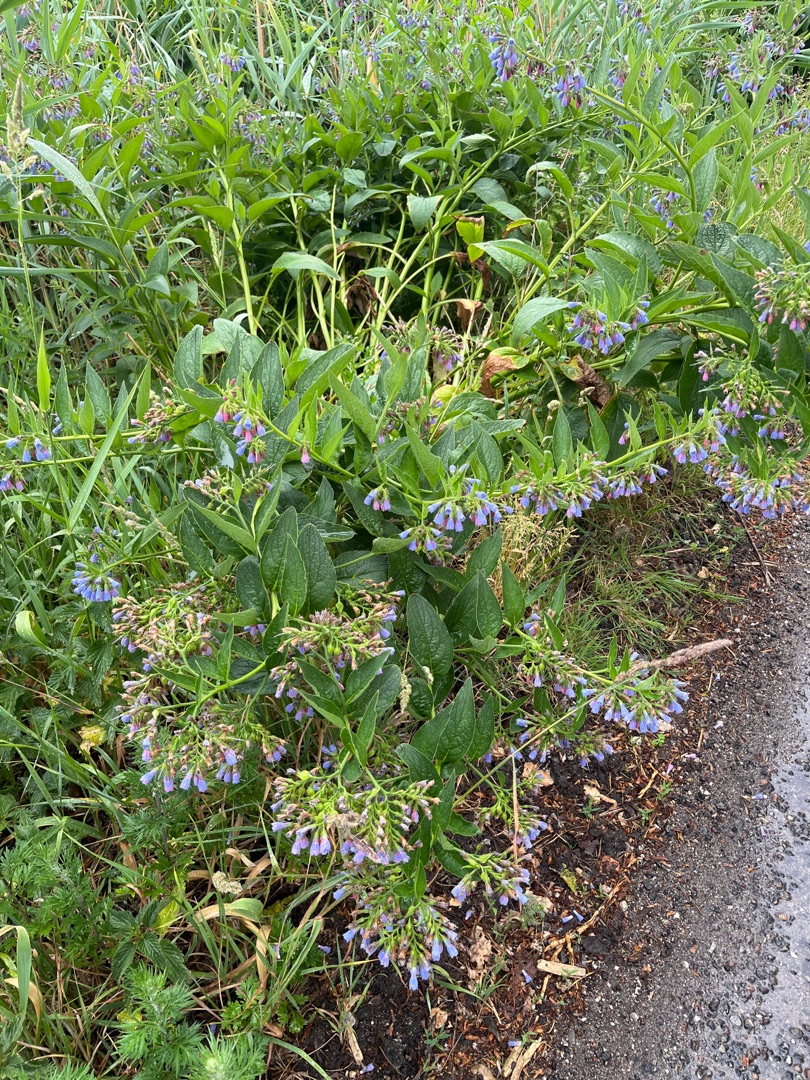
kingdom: Plantae
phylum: Tracheophyta
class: Magnoliopsida
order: Boraginales
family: Boraginaceae
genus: Symphytum
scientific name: Symphytum uplandicum
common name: Foder-kulsukker
